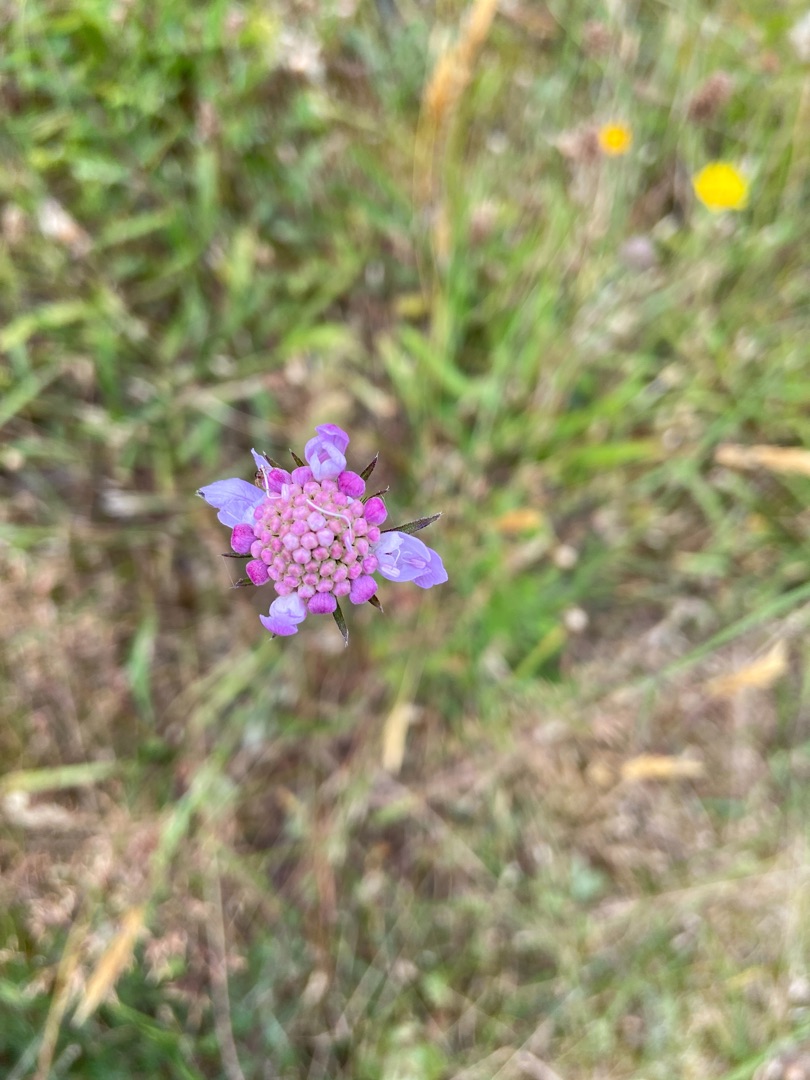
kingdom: Plantae
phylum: Tracheophyta
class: Magnoliopsida
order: Dipsacales
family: Caprifoliaceae
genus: Scabiosa
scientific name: Scabiosa columbaria
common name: Due-skabiose
